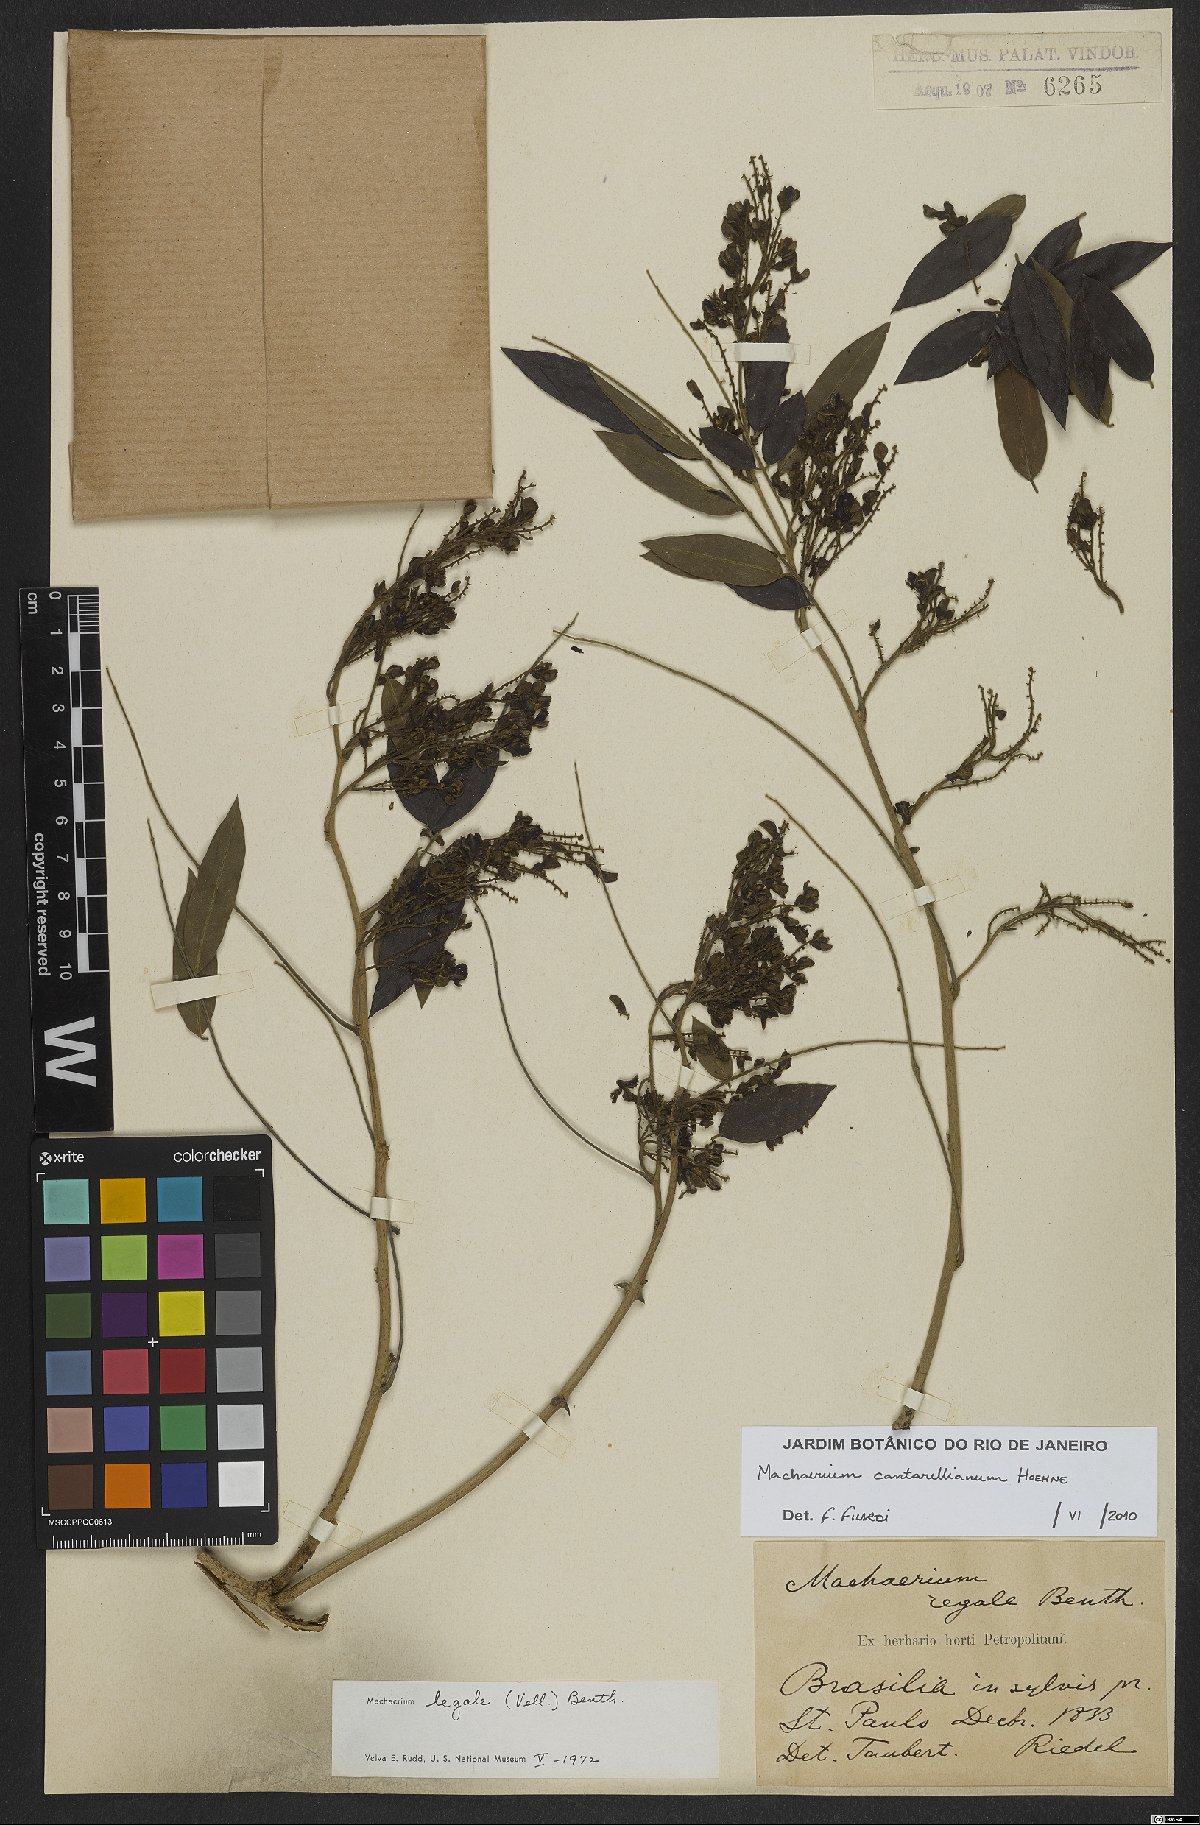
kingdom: Plantae
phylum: Tracheophyta
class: Magnoliopsida
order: Fabales
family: Fabaceae
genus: Machaerium
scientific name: Machaerium cantarellianum
